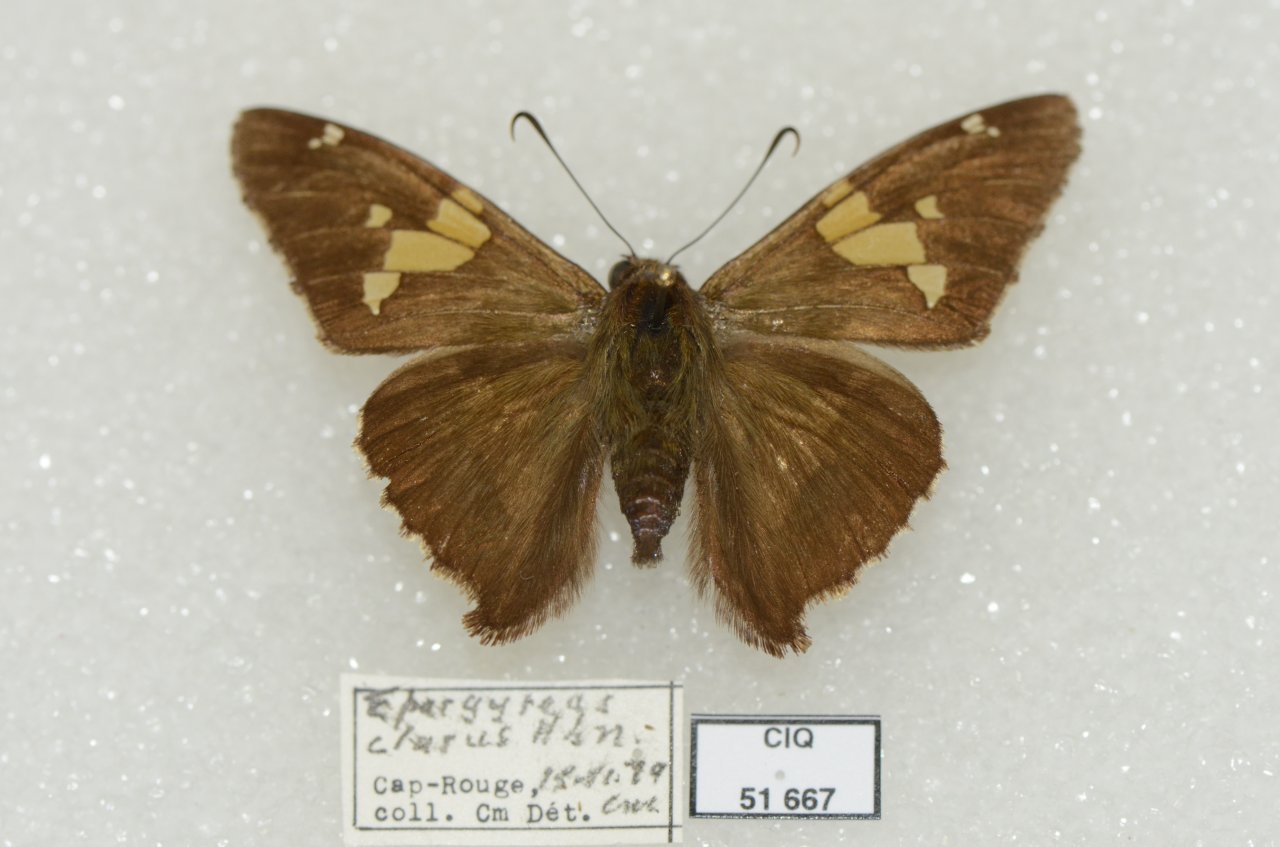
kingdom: Animalia
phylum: Arthropoda
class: Insecta
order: Lepidoptera
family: Hesperiidae
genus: Epargyreus
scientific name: Epargyreus clarus
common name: Silver-spotted Skipper
